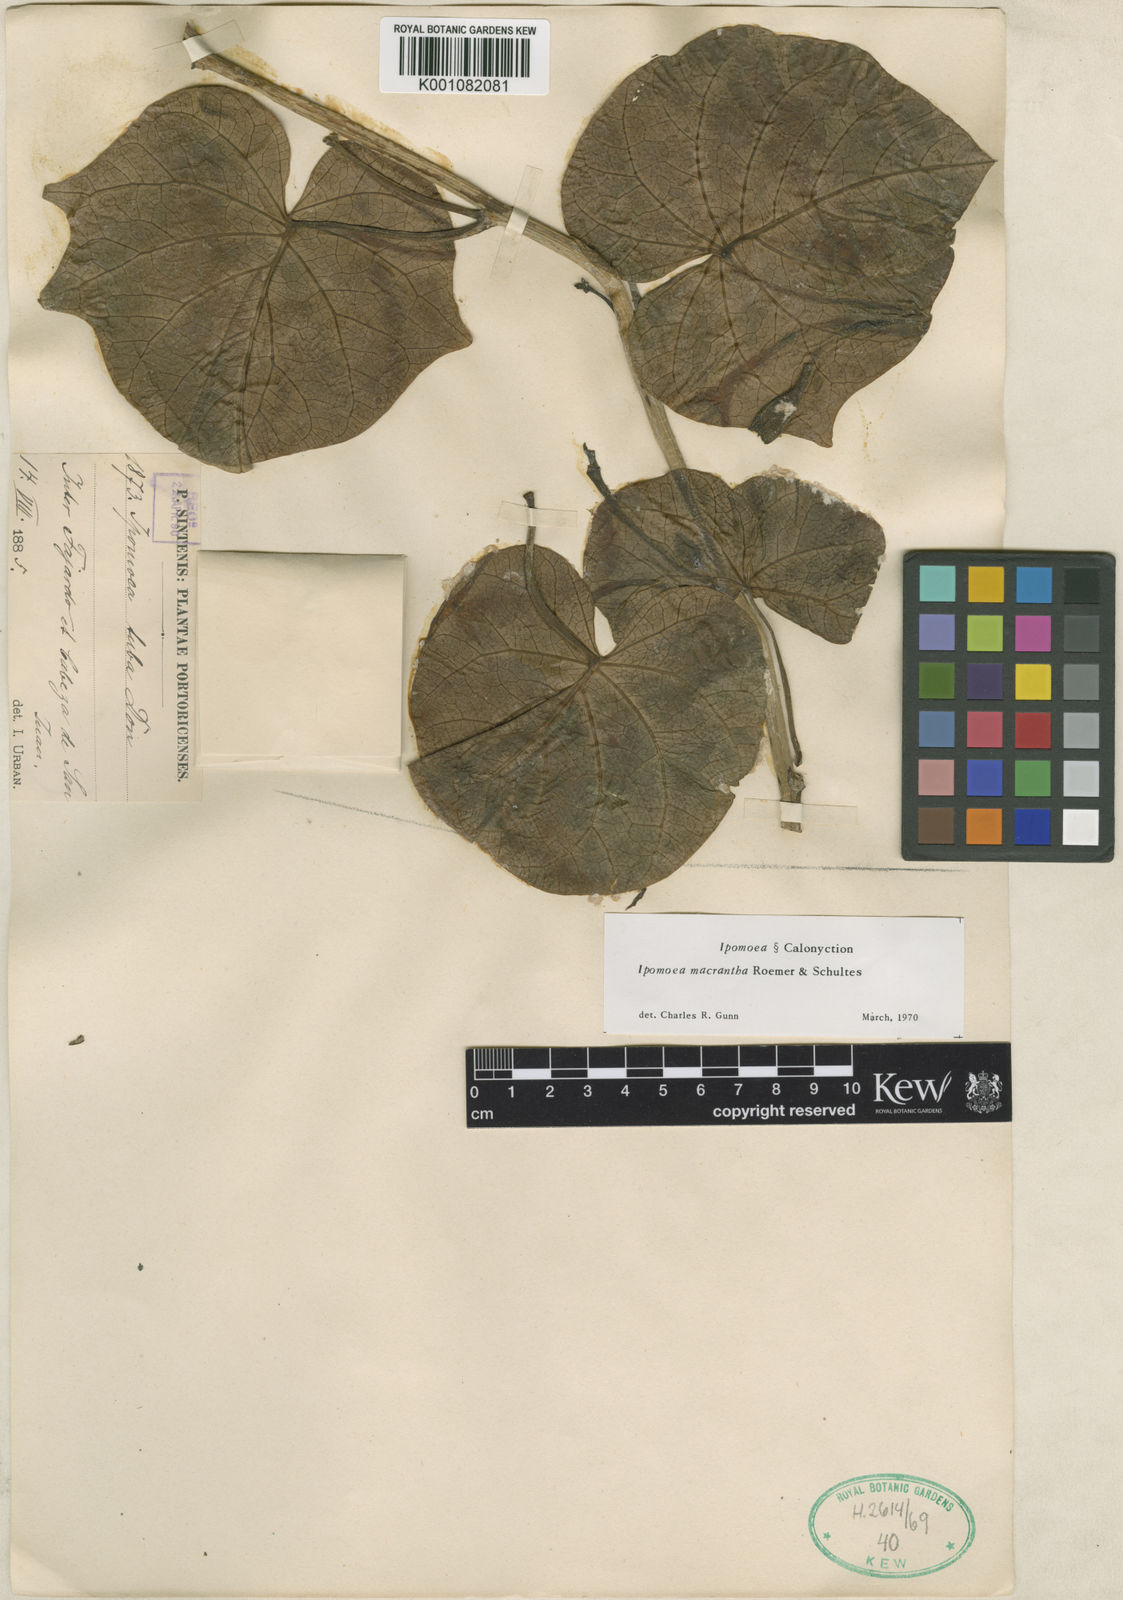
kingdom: Plantae
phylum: Tracheophyta
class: Magnoliopsida
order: Solanales
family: Convolvulaceae
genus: Ipomoea
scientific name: Ipomoea violacea
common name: Beach moonflower
